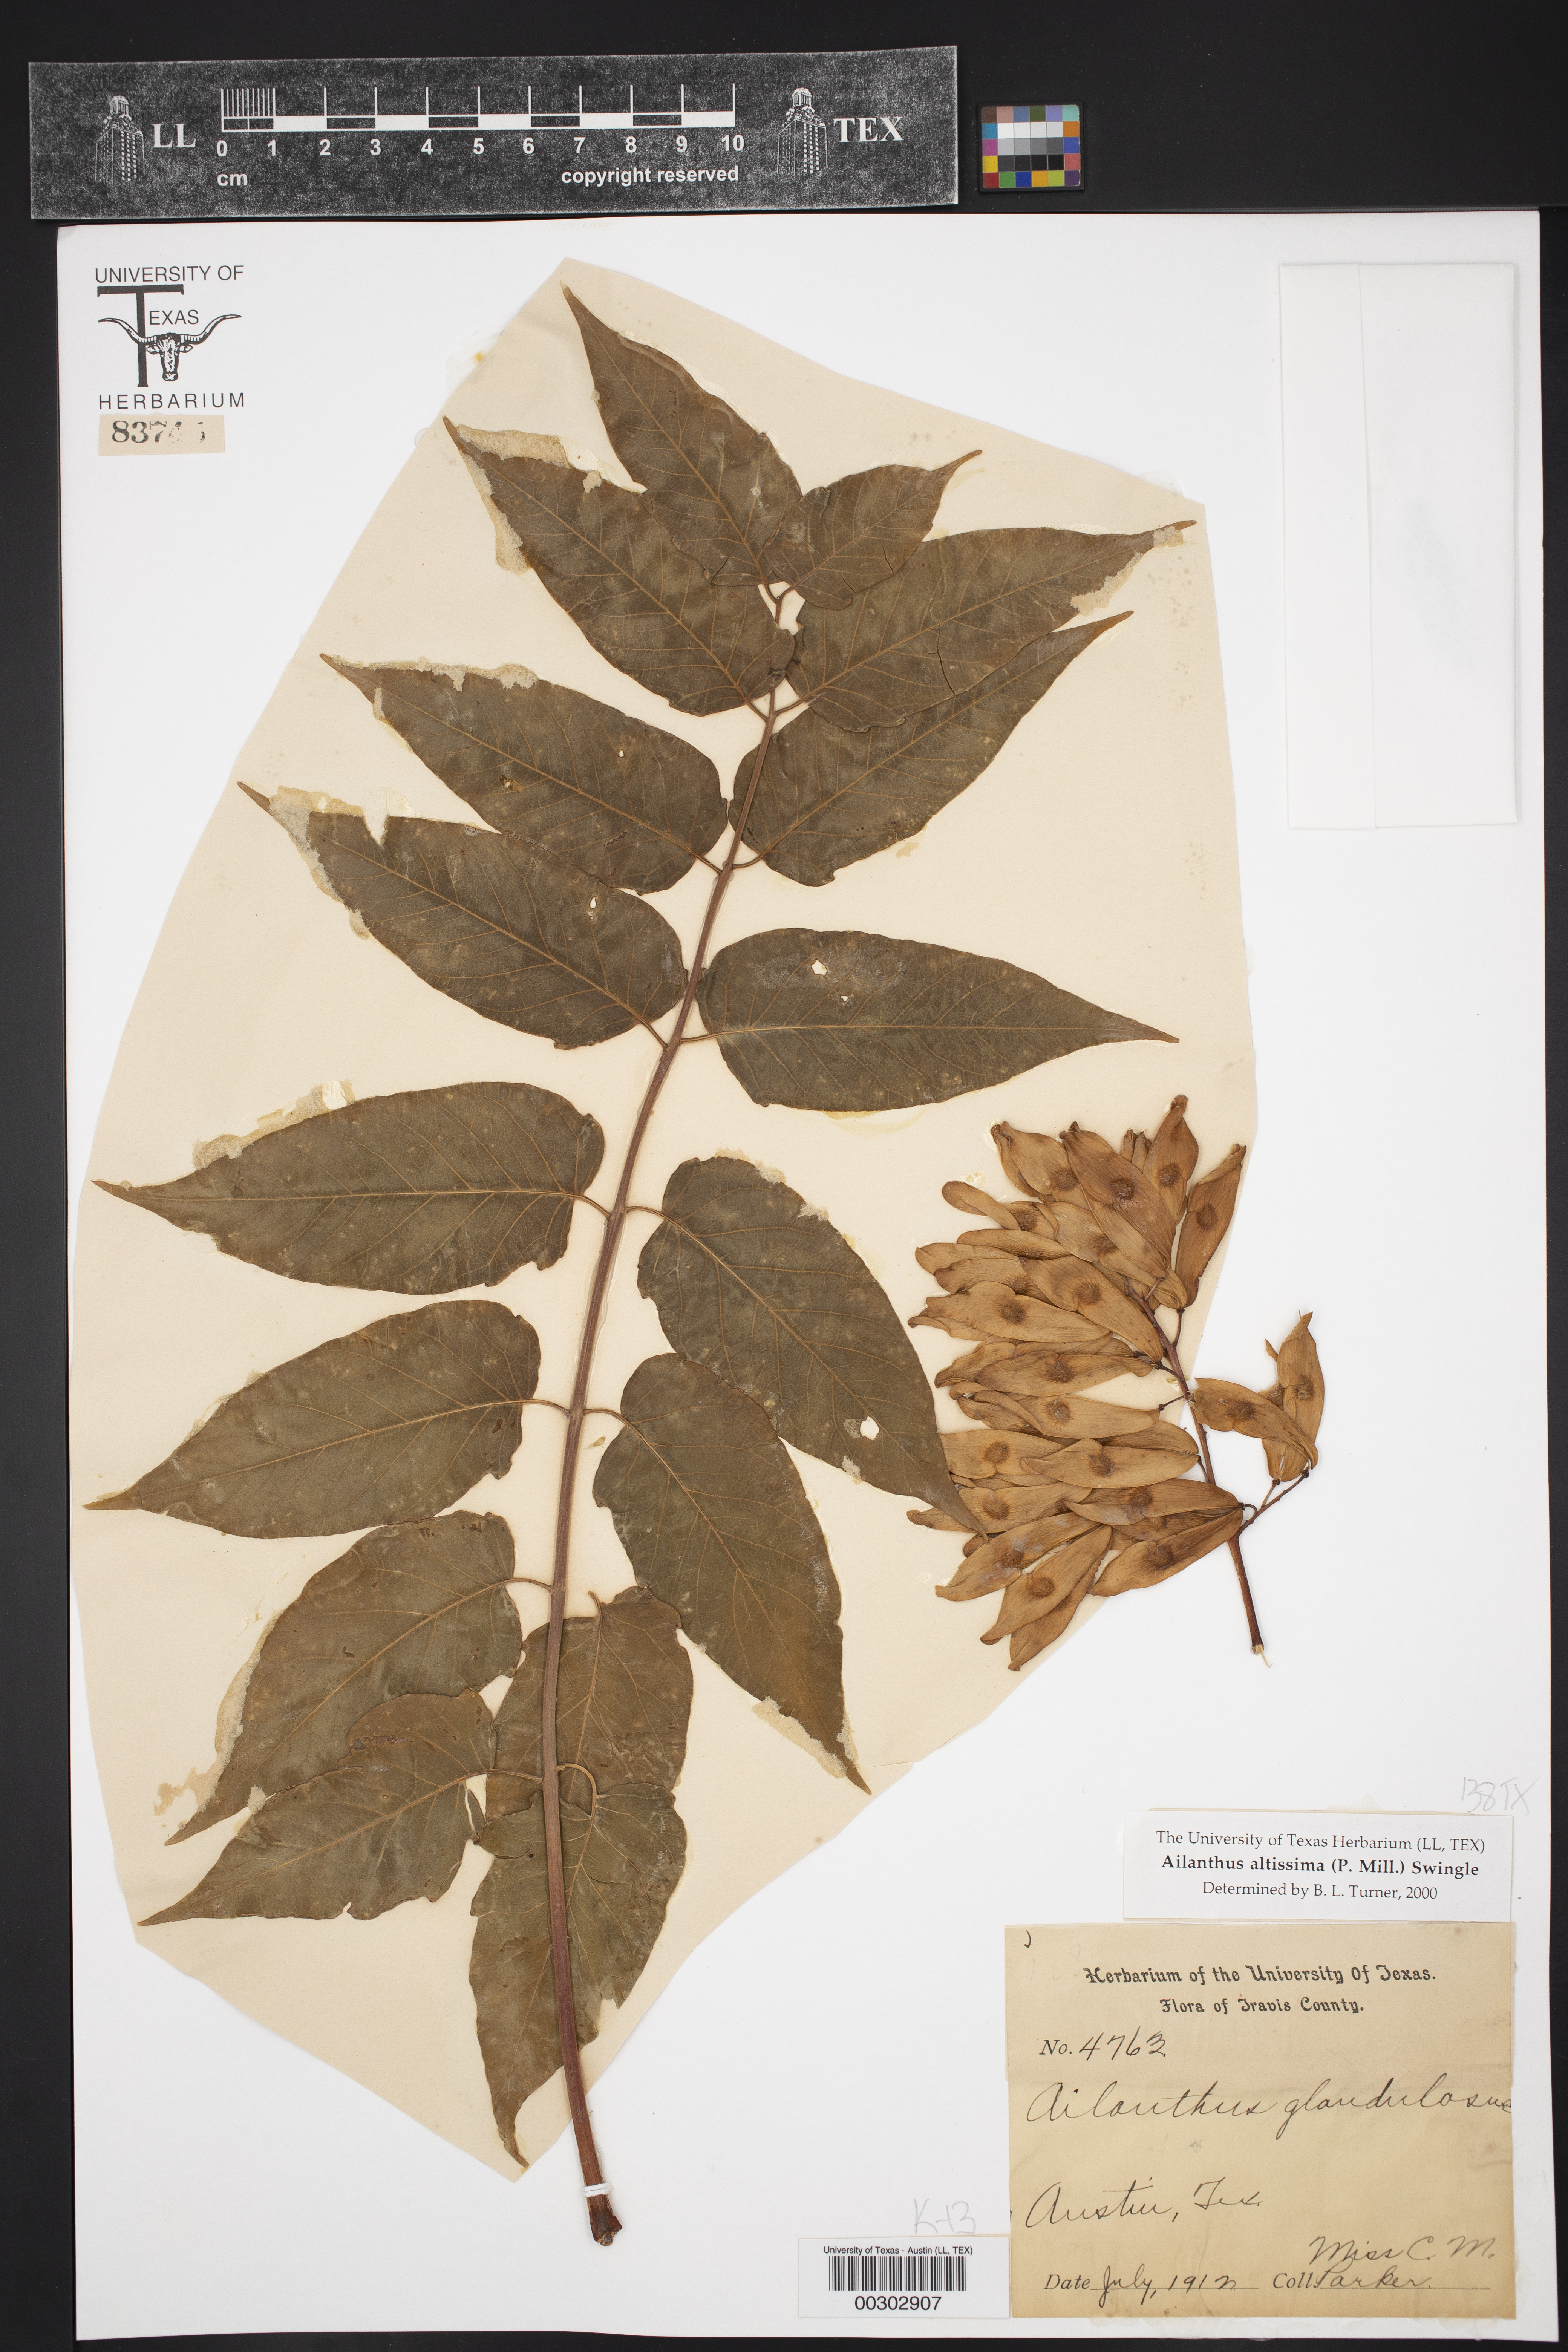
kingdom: Plantae
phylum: Tracheophyta
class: Magnoliopsida
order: Sapindales
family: Simaroubaceae
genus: Ailanthus
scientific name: Ailanthus altissima
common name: Tree-of-heaven
